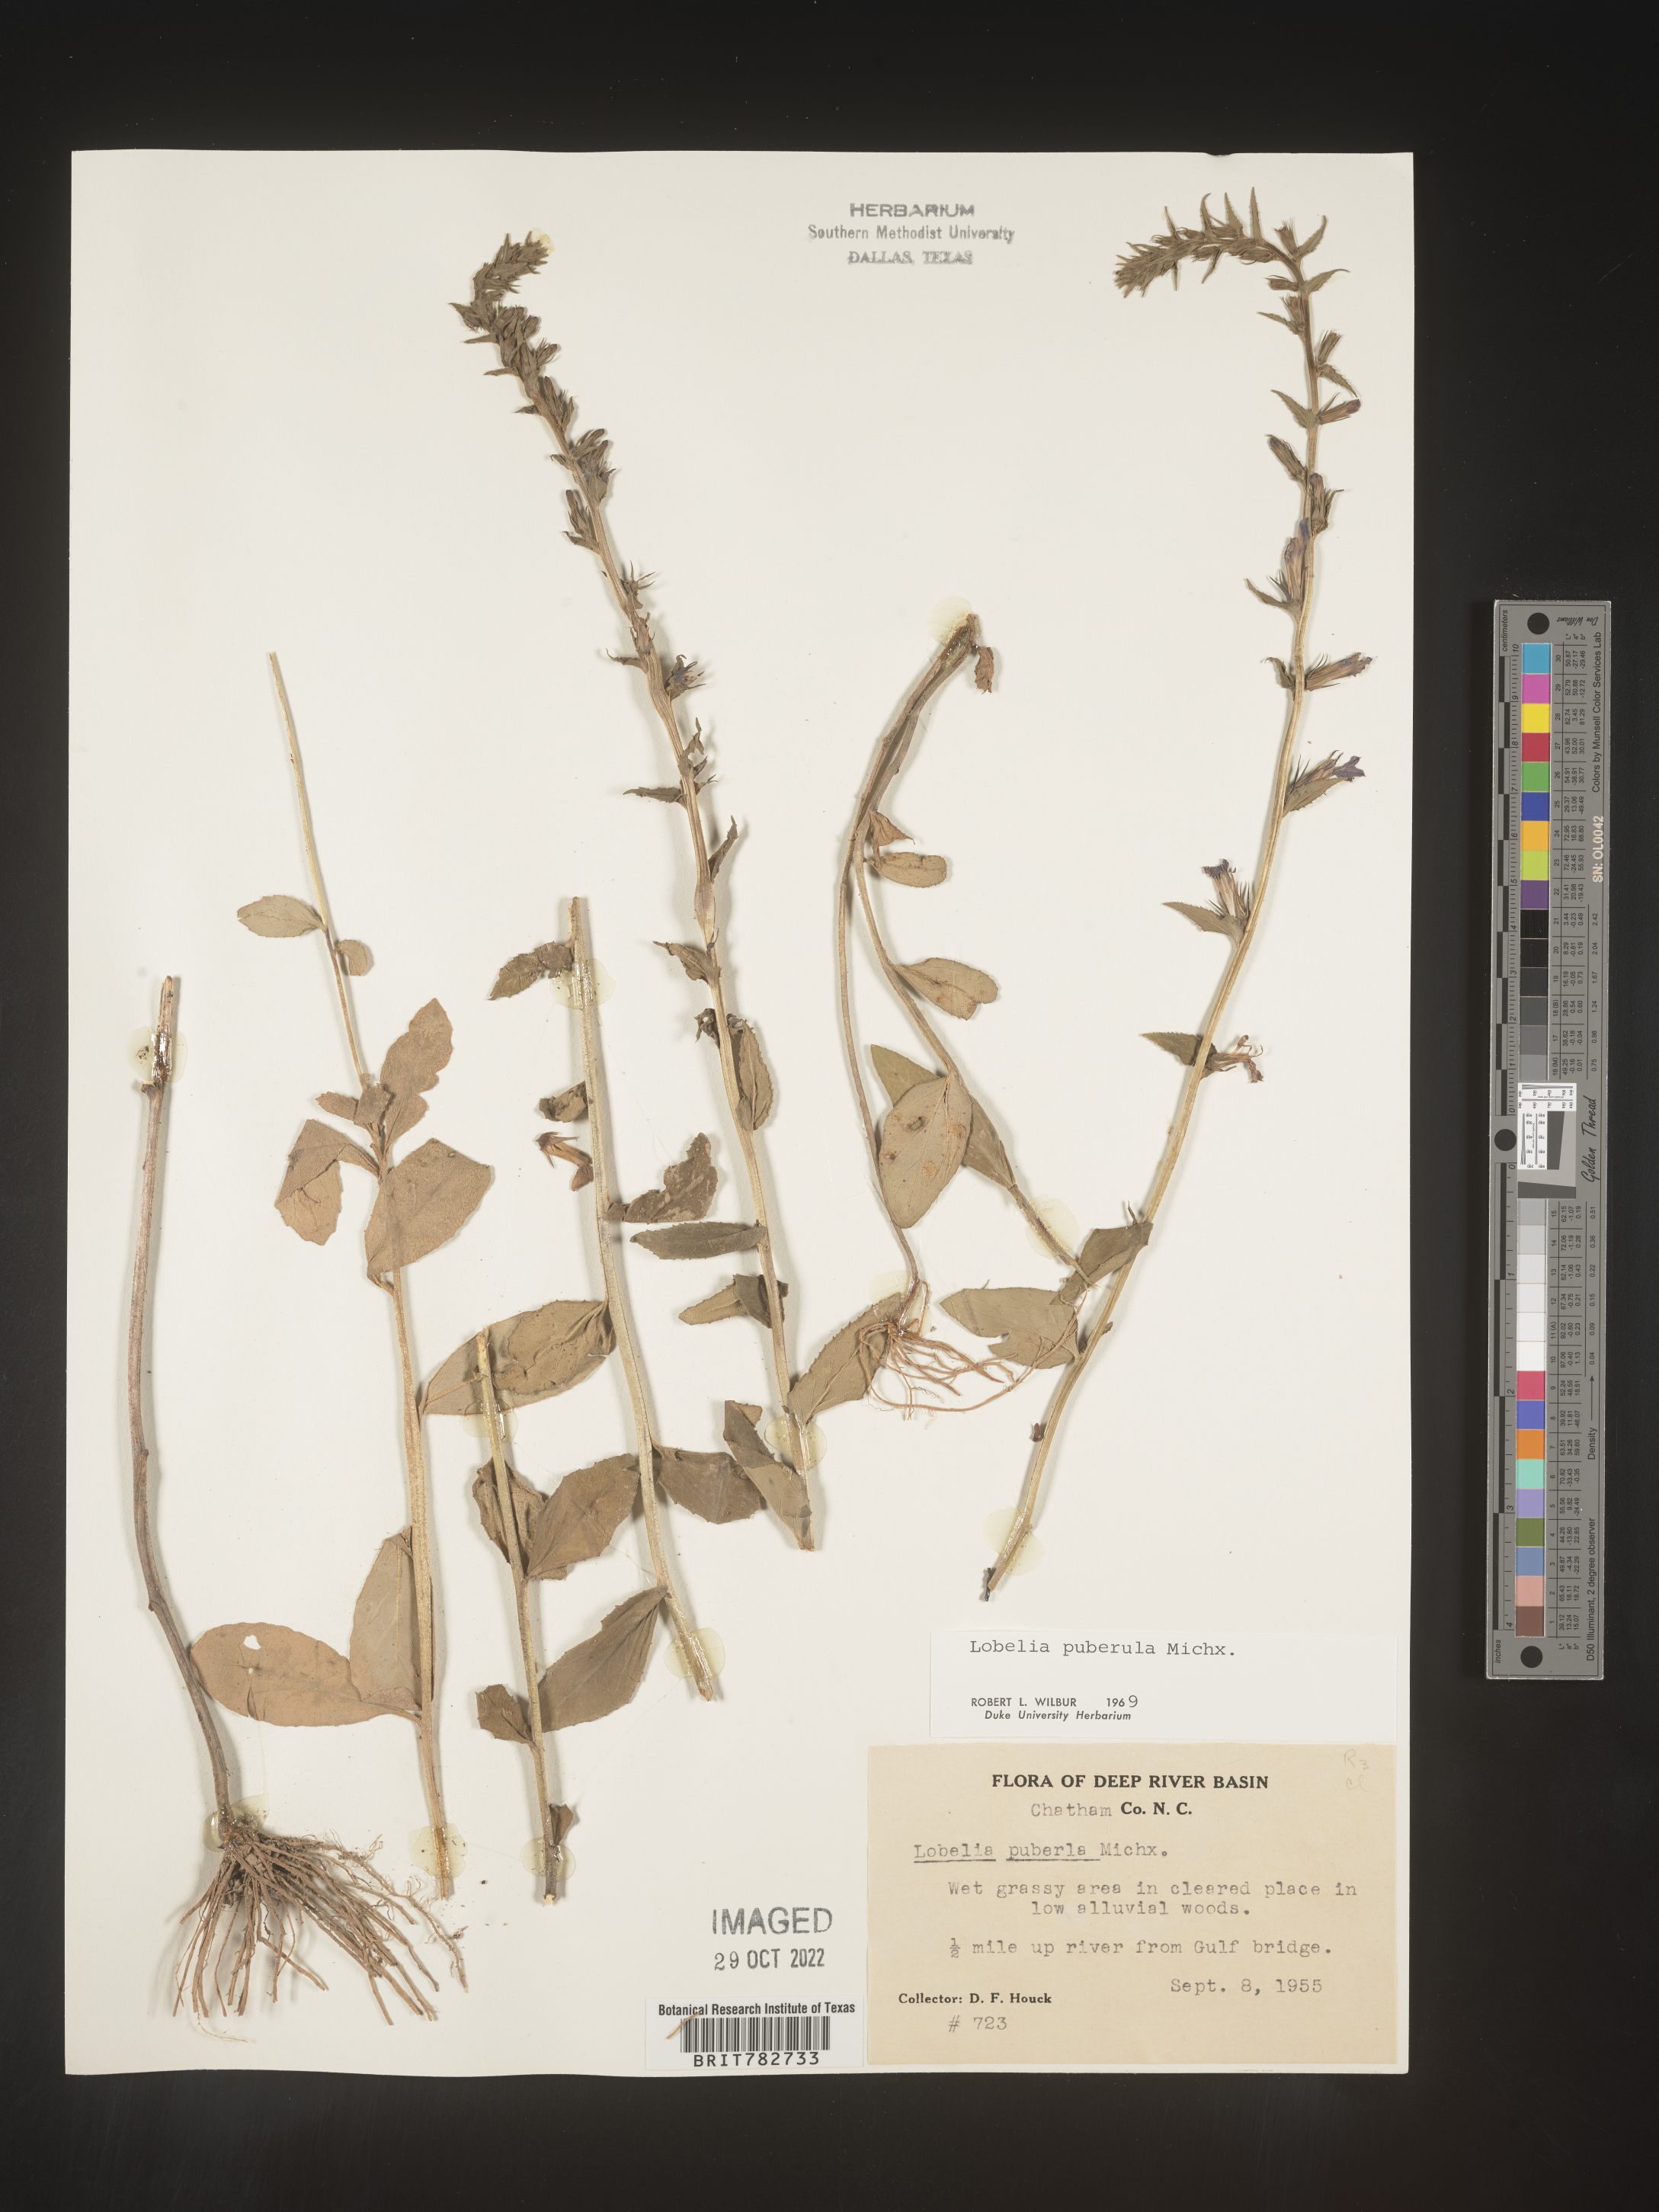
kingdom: Plantae
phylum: Tracheophyta
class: Magnoliopsida
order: Asterales
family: Campanulaceae
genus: Lobelia
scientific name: Lobelia puberula
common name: Purple dewdrop
